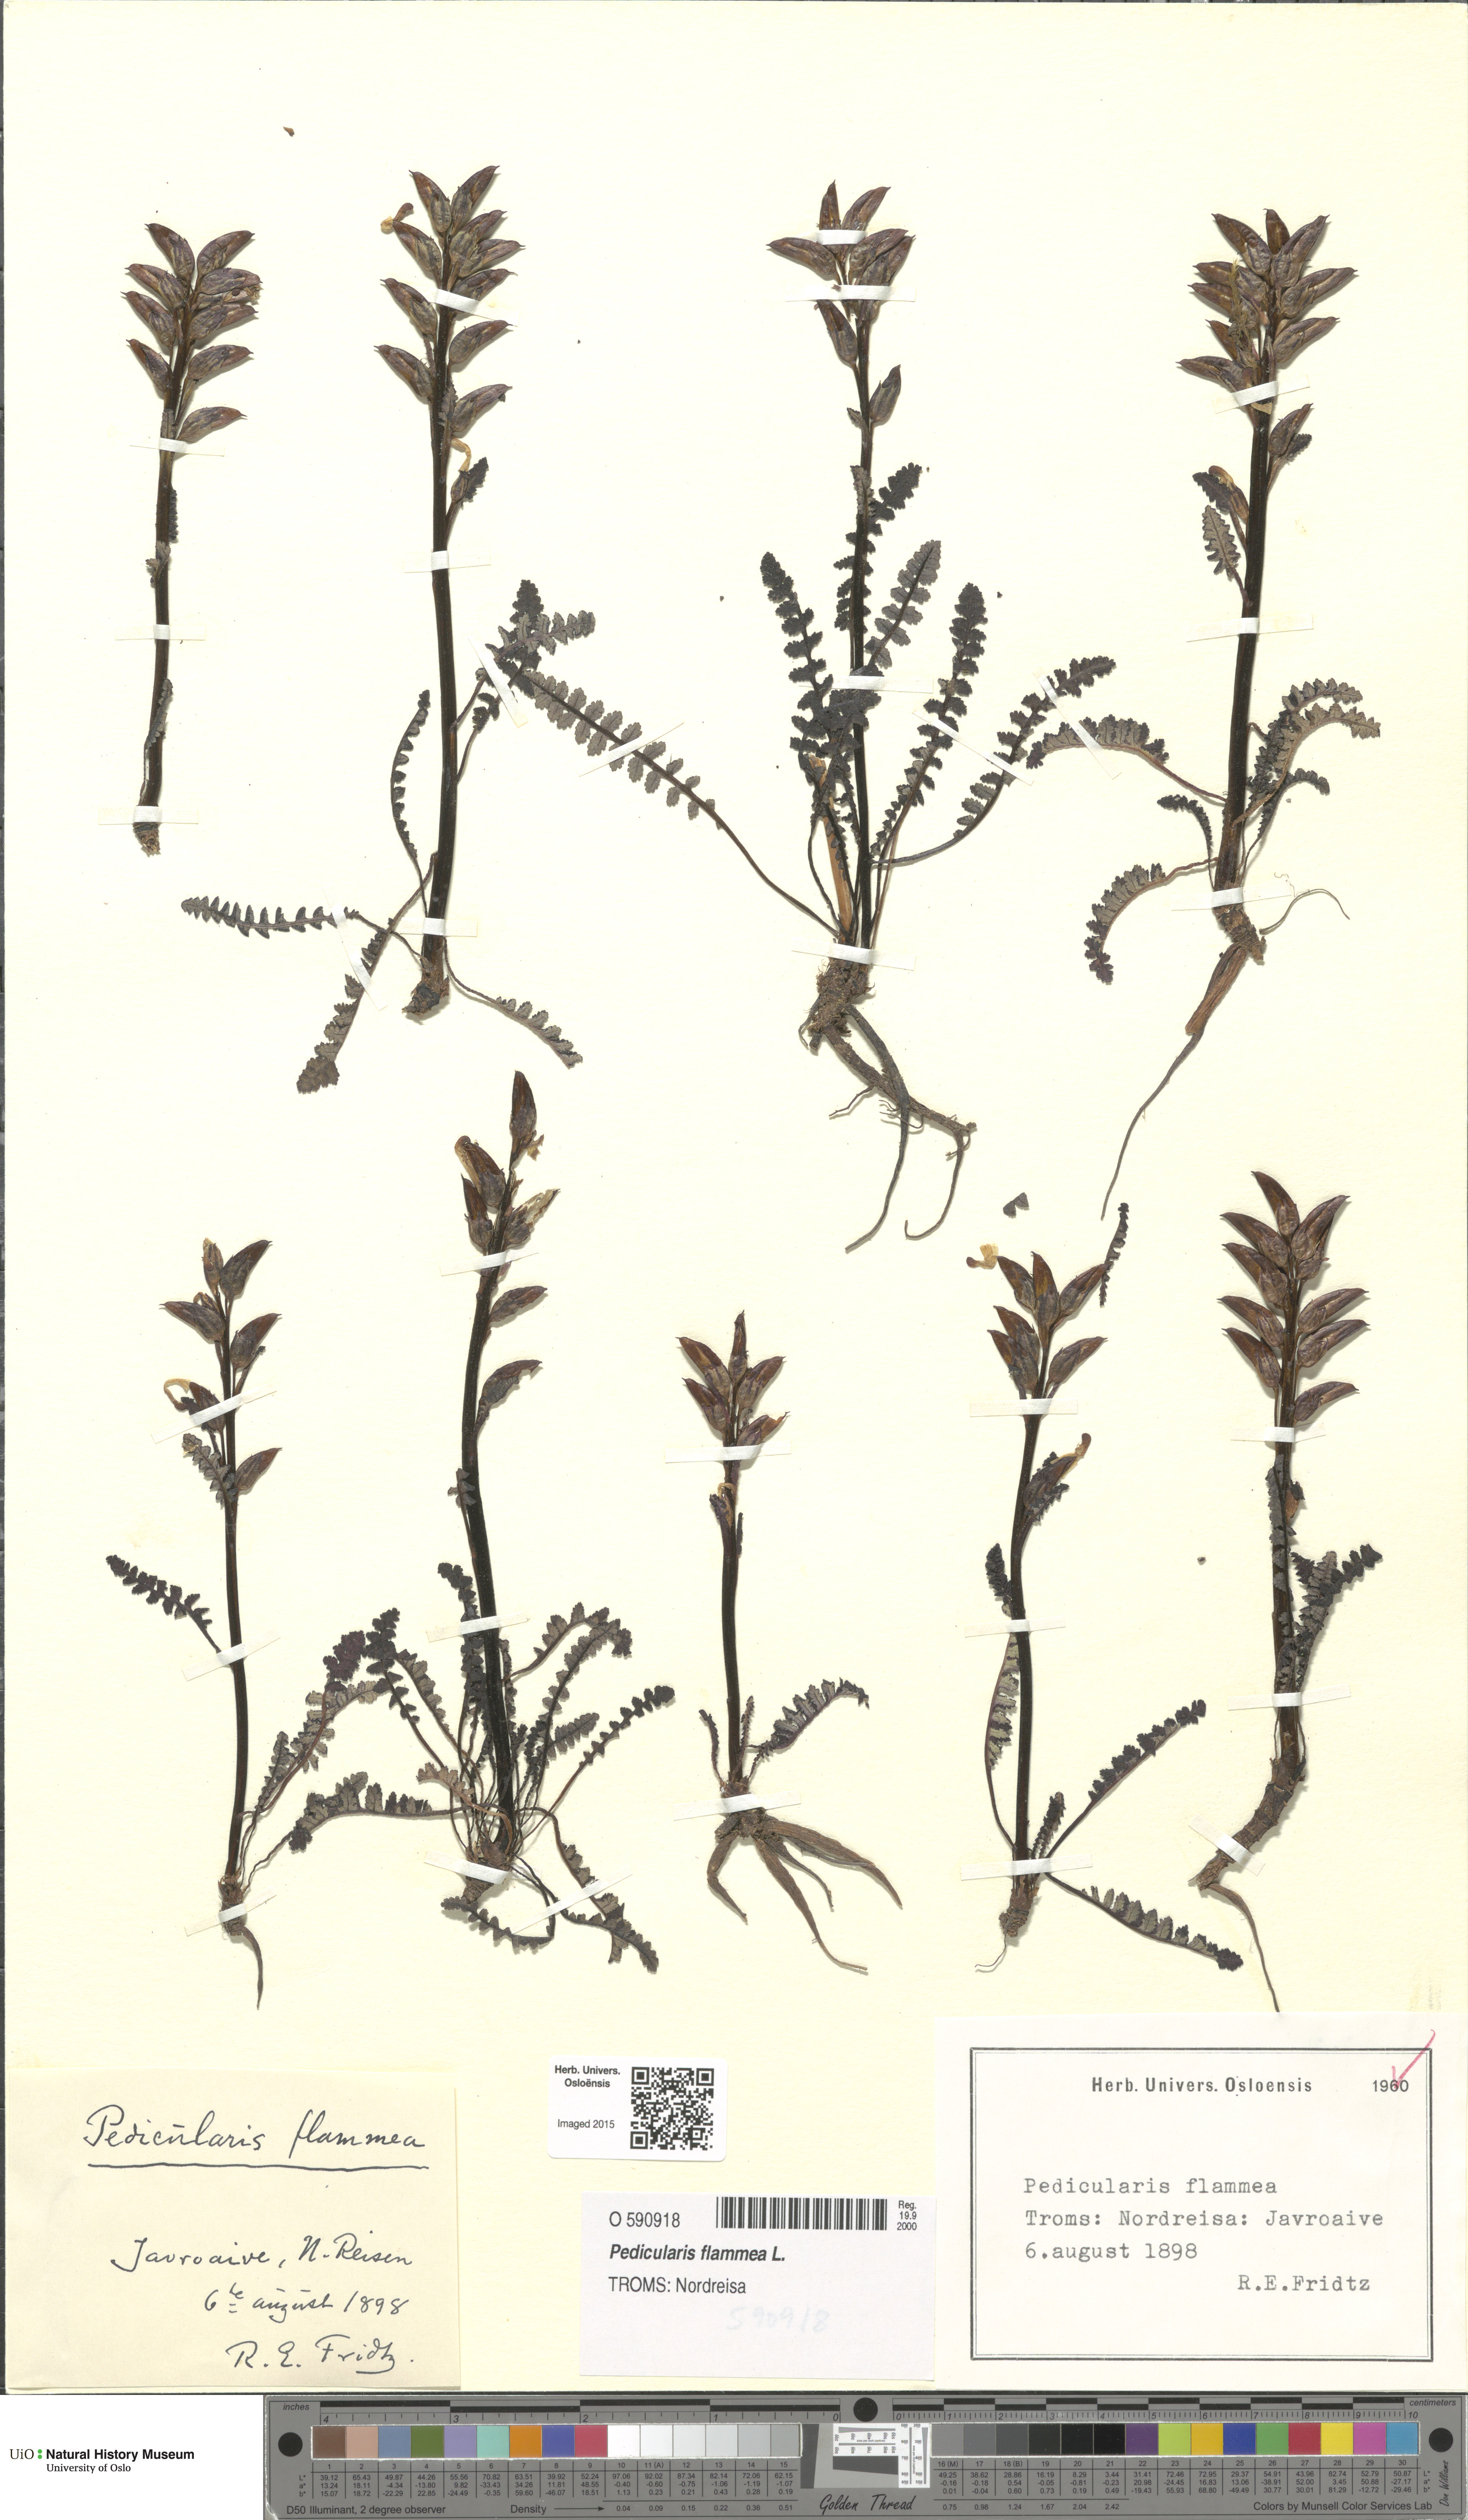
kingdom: Plantae
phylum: Tracheophyta
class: Magnoliopsida
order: Lamiales
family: Orobanchaceae
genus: Pedicularis
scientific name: Pedicularis flammea
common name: Flame-coloured lousewort
